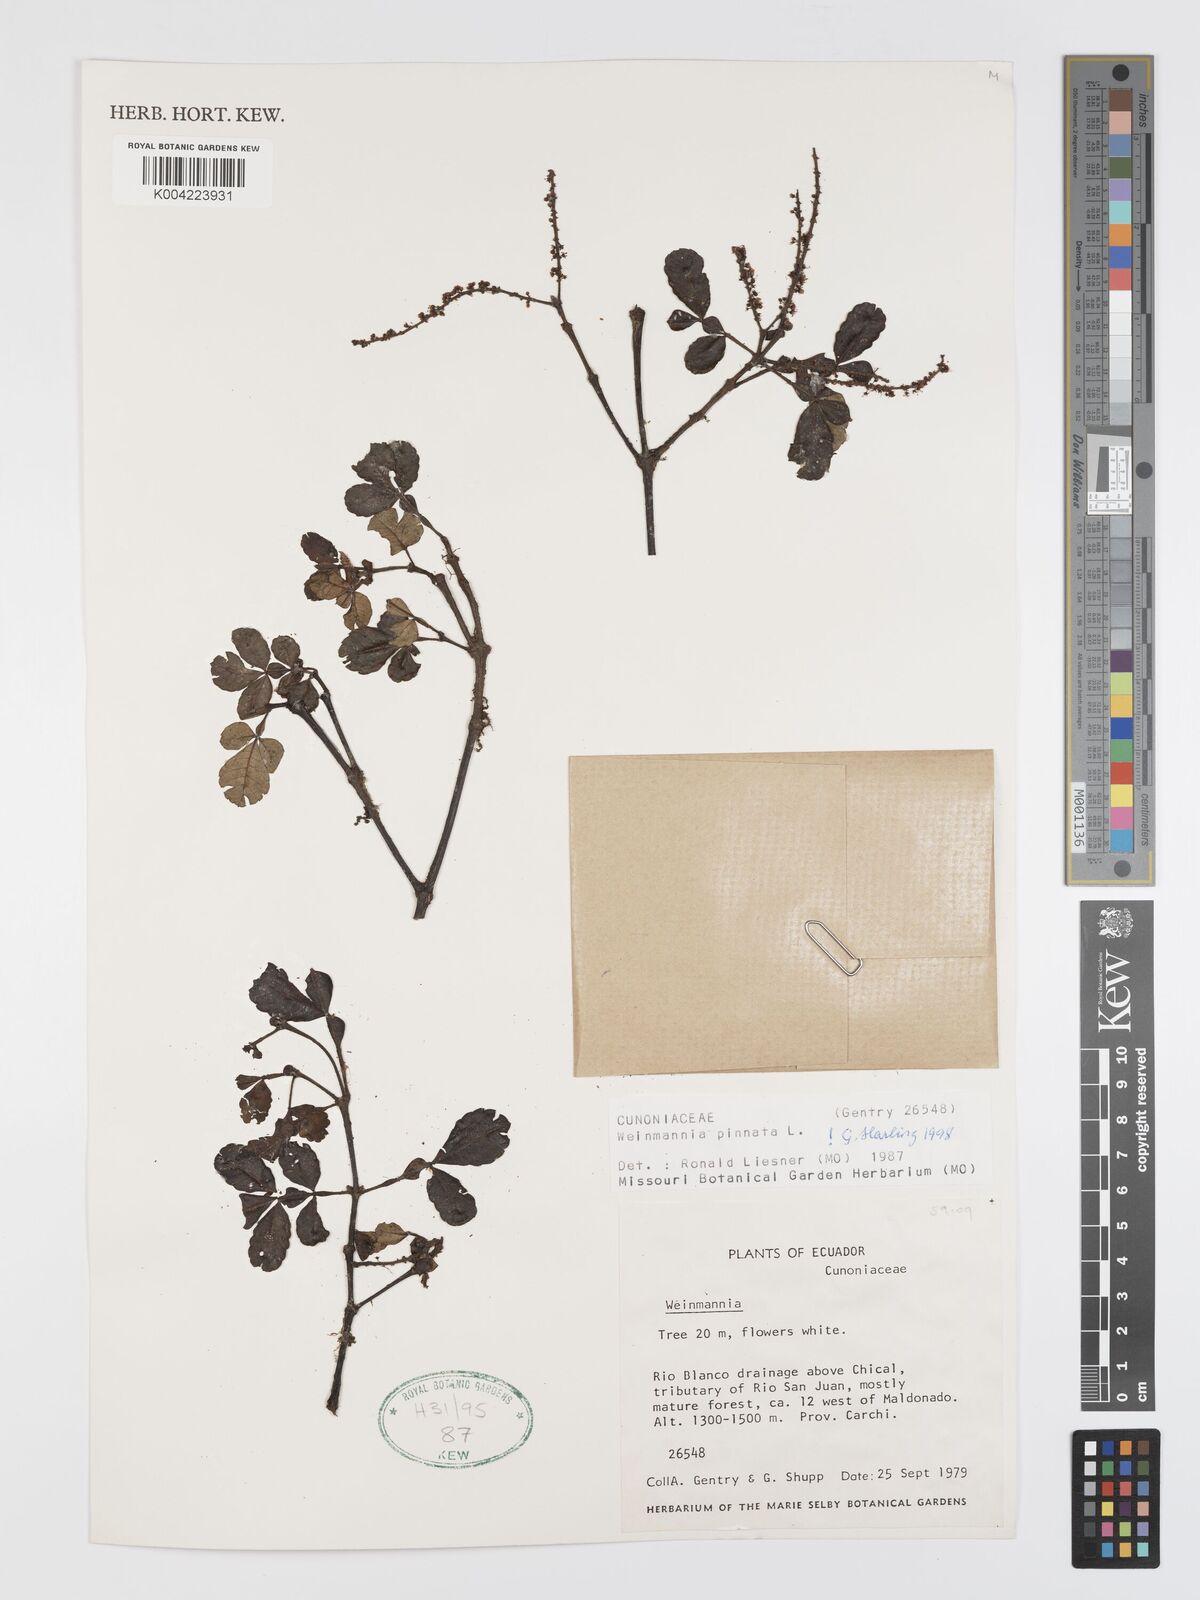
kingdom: Plantae
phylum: Tracheophyta
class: Magnoliopsida
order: Oxalidales
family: Cunoniaceae
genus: Weinmannia
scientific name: Weinmannia pinnata
